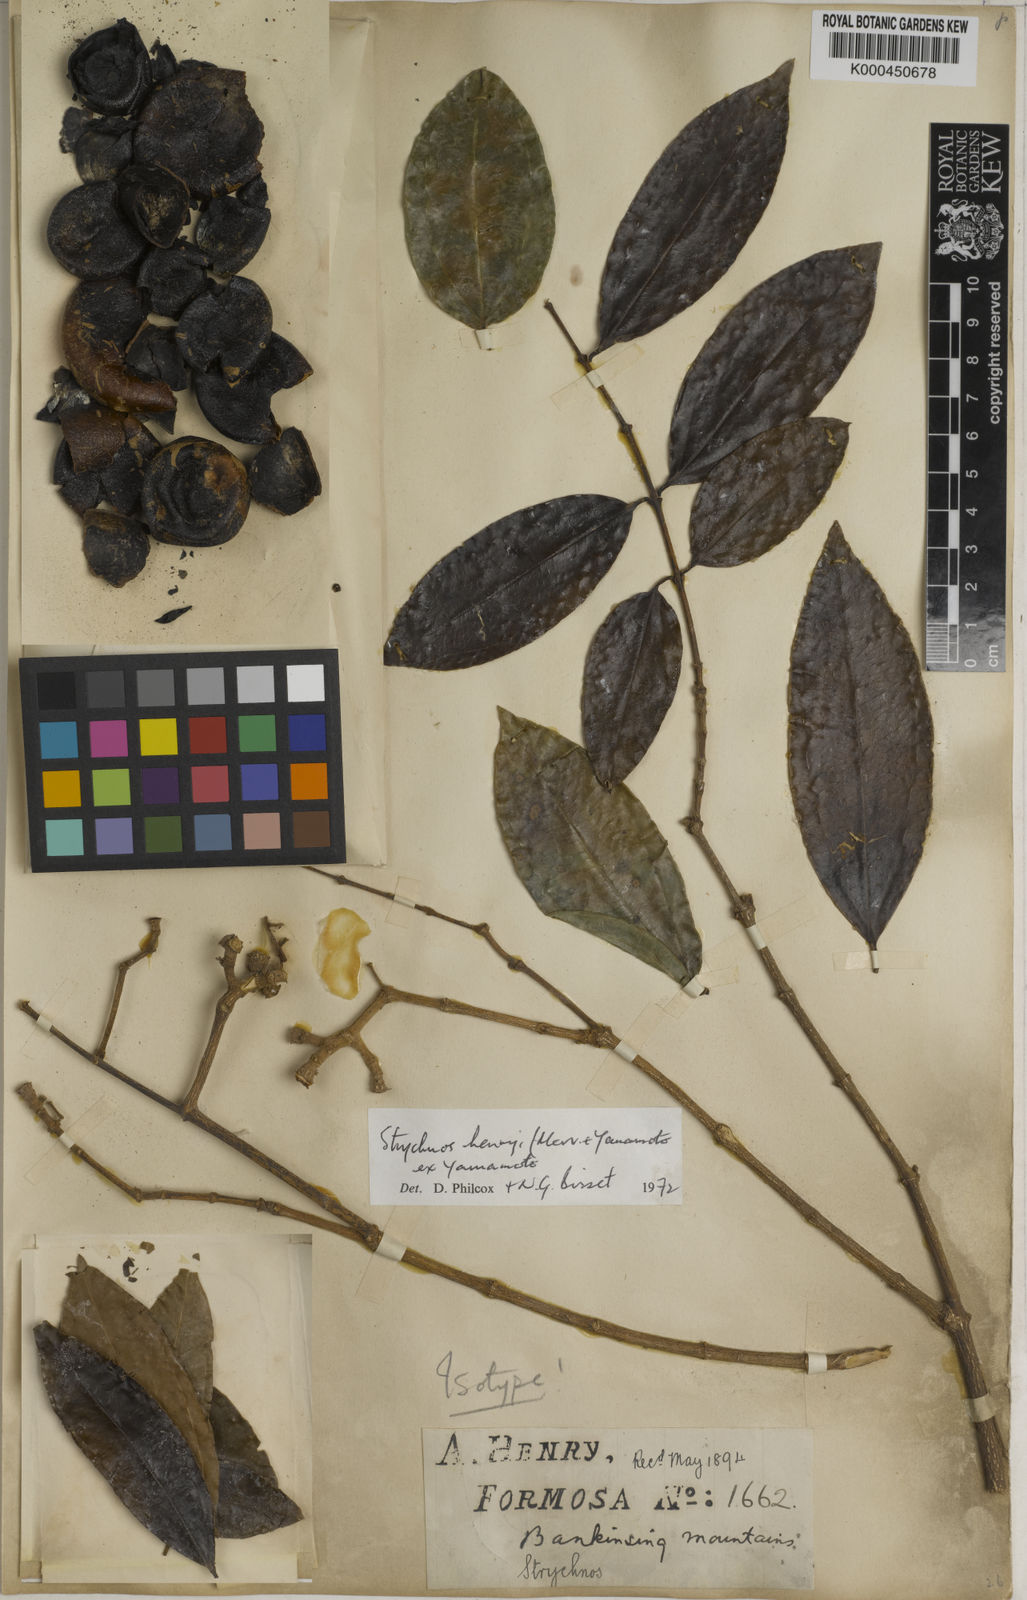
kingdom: Plantae
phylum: Tracheophyta
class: Magnoliopsida
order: Gentianales
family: Loganiaceae
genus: Strychnos
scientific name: Strychnos cathayensis
